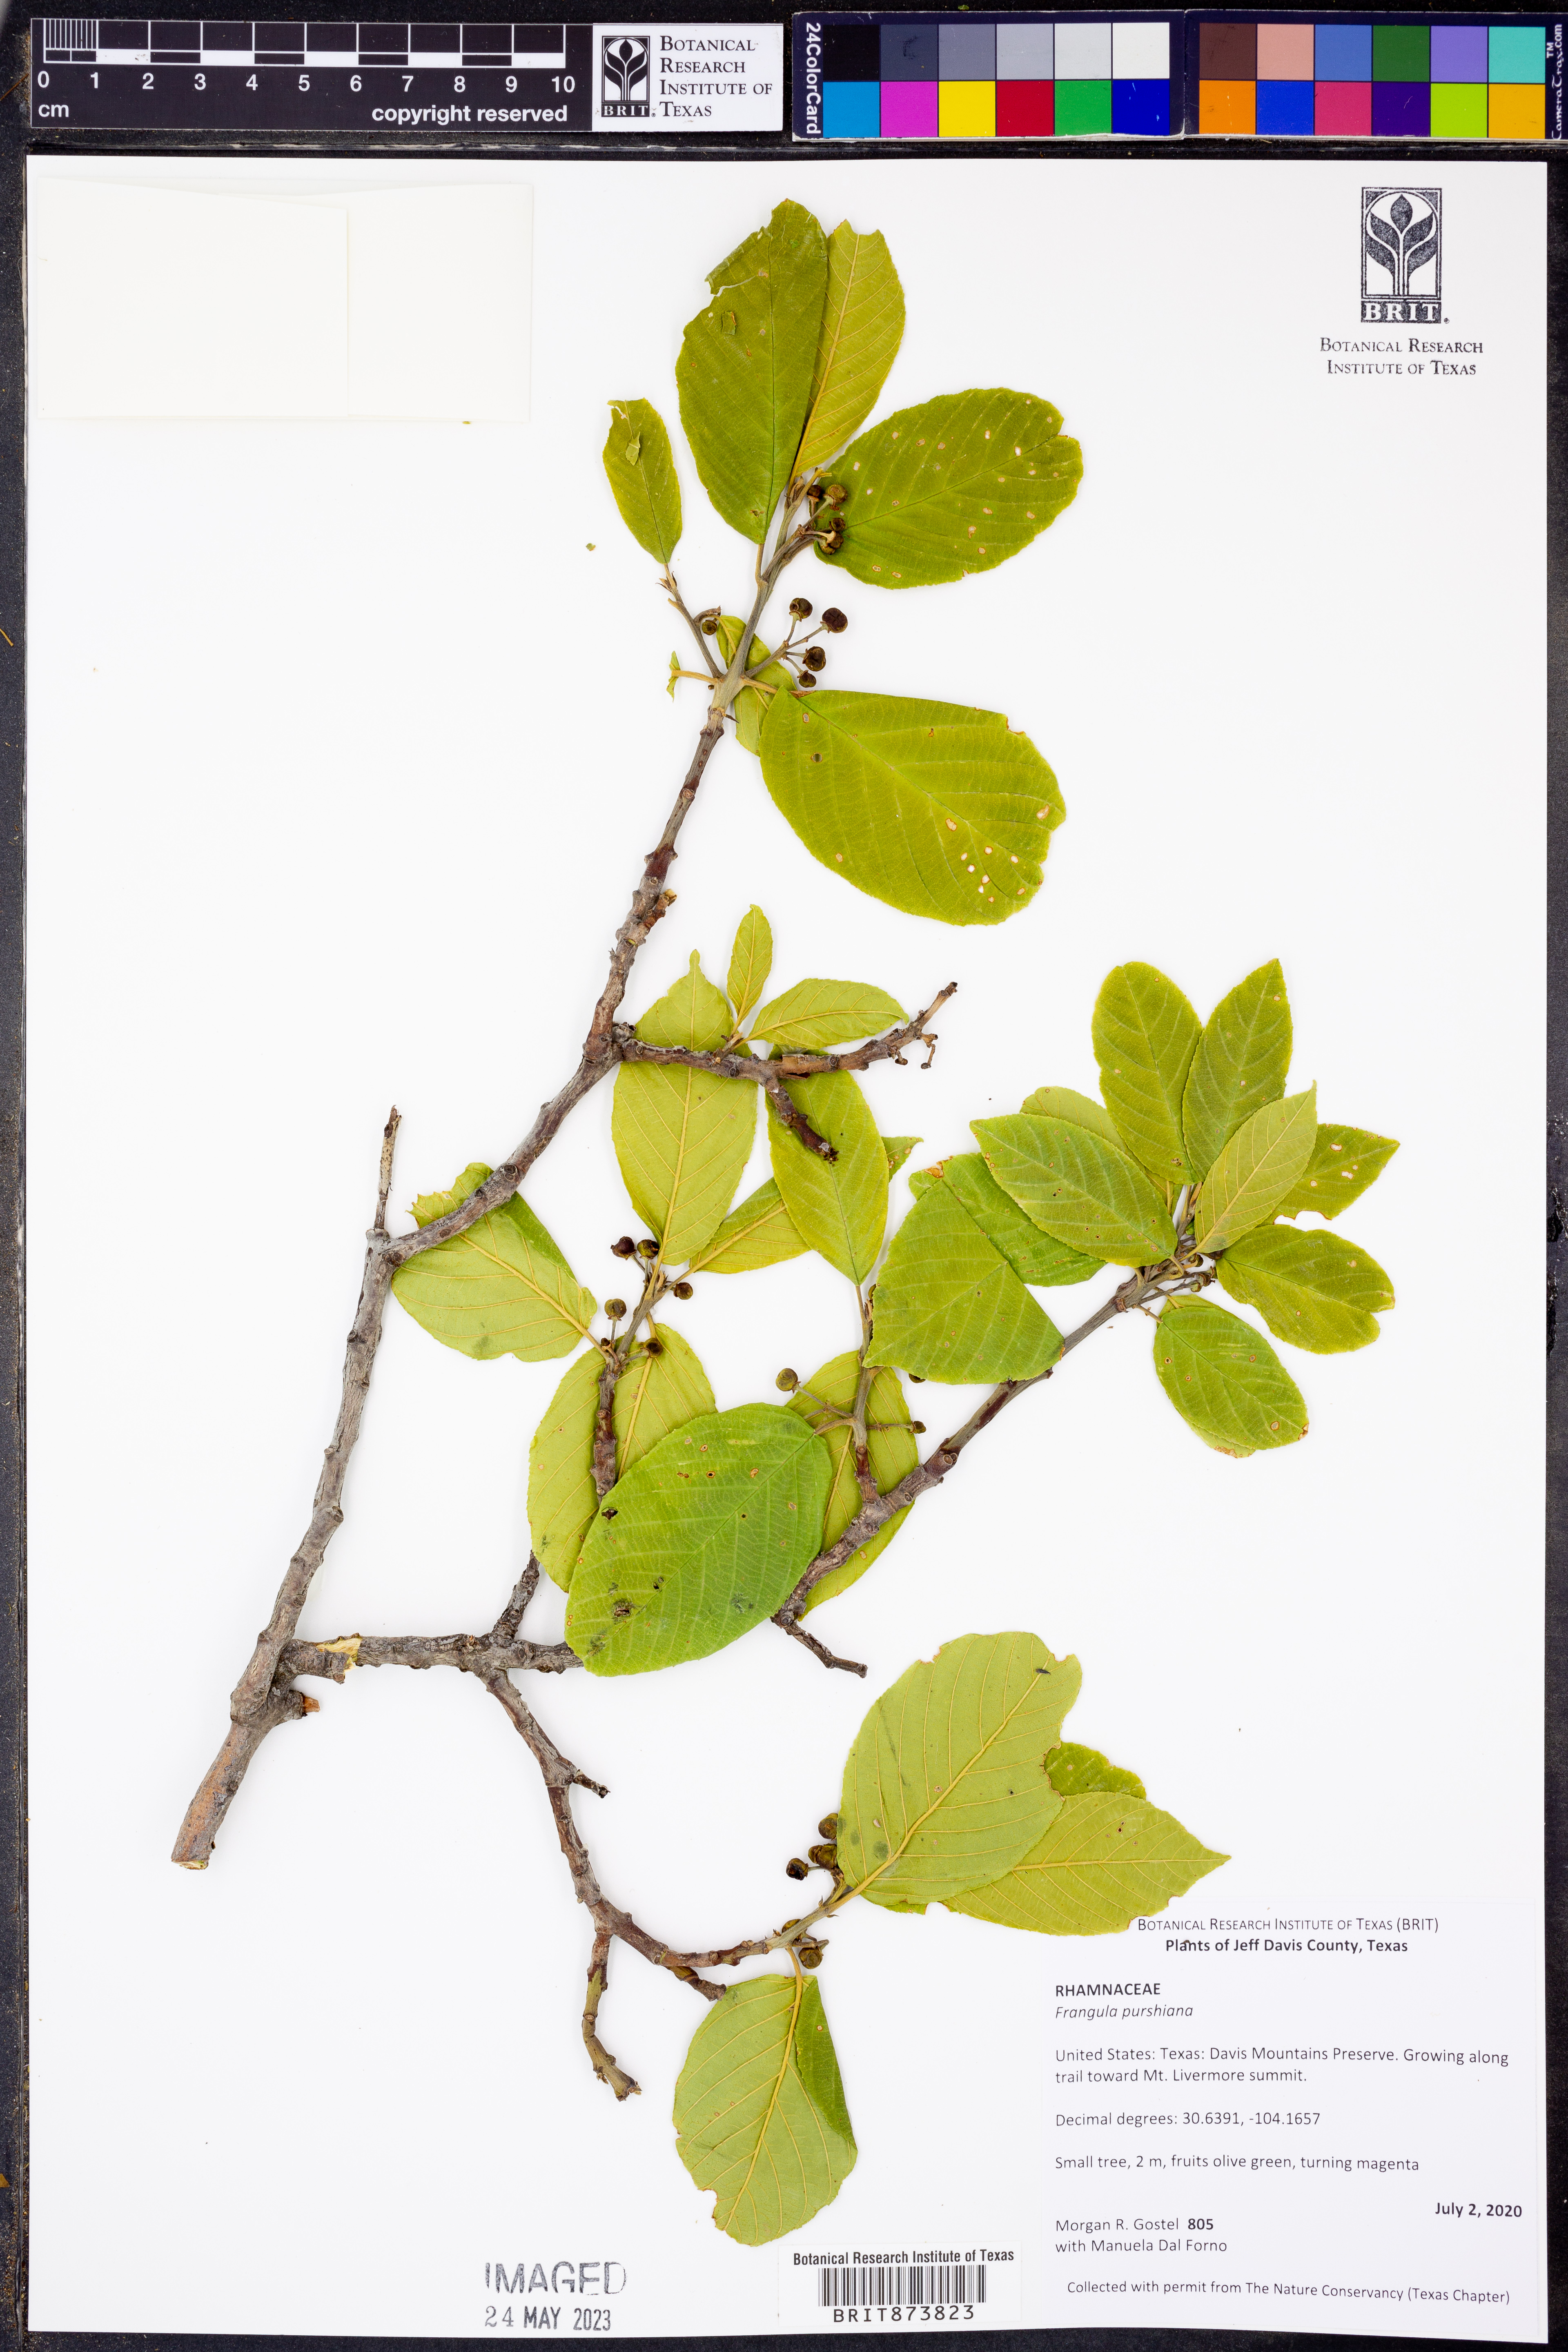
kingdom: Plantae
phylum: Tracheophyta
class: Magnoliopsida
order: Rosales
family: Rhamnaceae
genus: Frangula
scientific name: Frangula purshiana
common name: Cascara buckthorn
